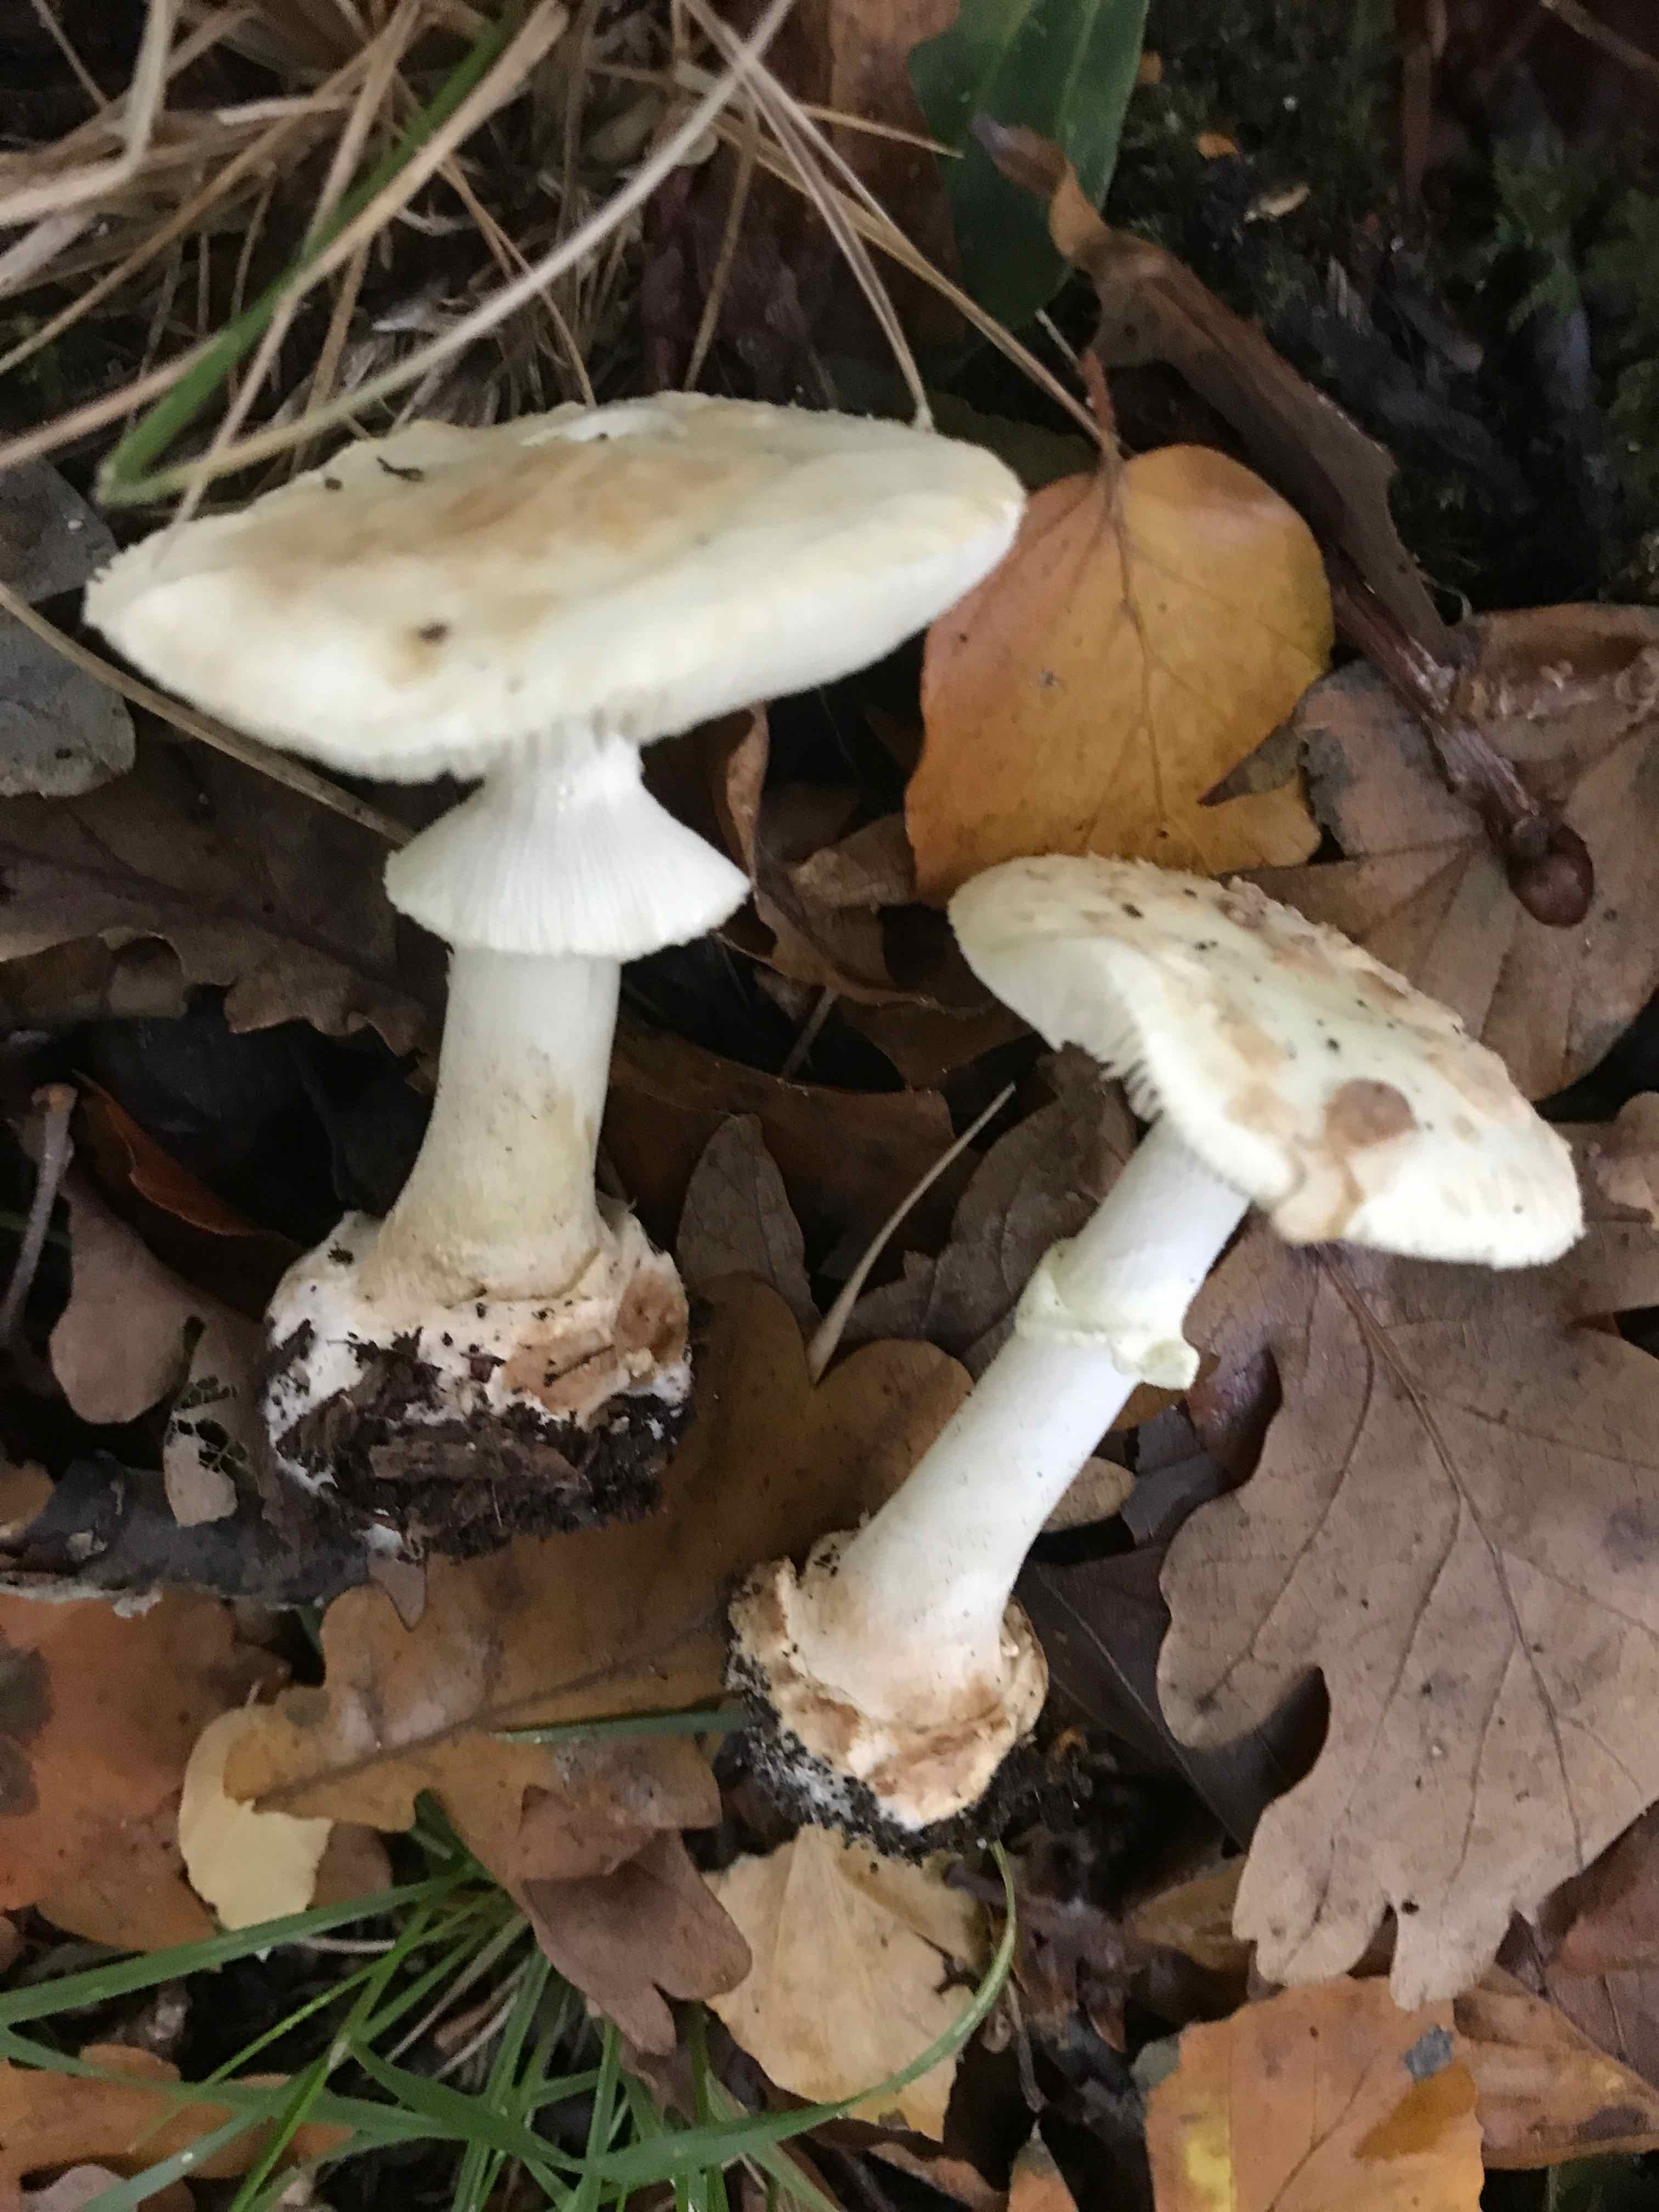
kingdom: Fungi
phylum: Basidiomycota
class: Agaricomycetes
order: Agaricales
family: Amanitaceae
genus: Amanita
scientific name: Amanita citrina
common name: kugleknoldet fluesvamp
